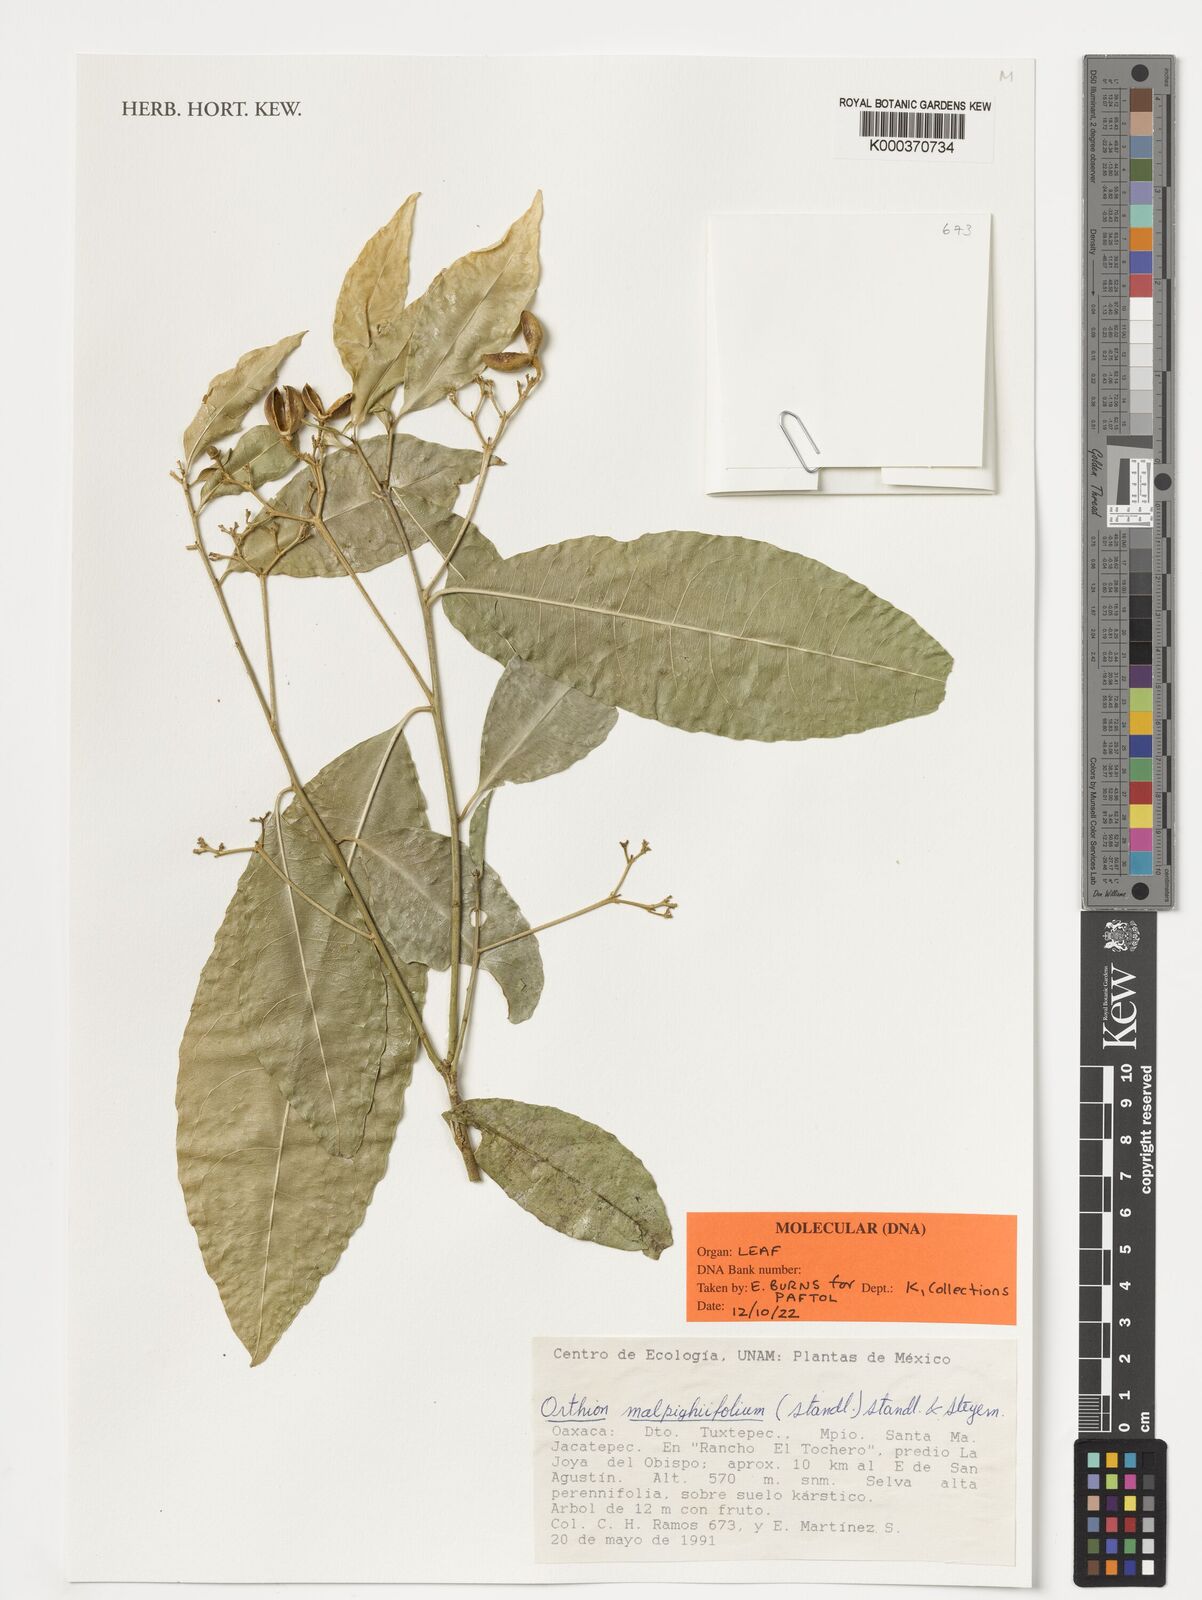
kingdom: Plantae
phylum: Tracheophyta
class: Magnoliopsida
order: Malpighiales
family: Violaceae
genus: Orthion
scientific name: Orthion malpighiifolium
